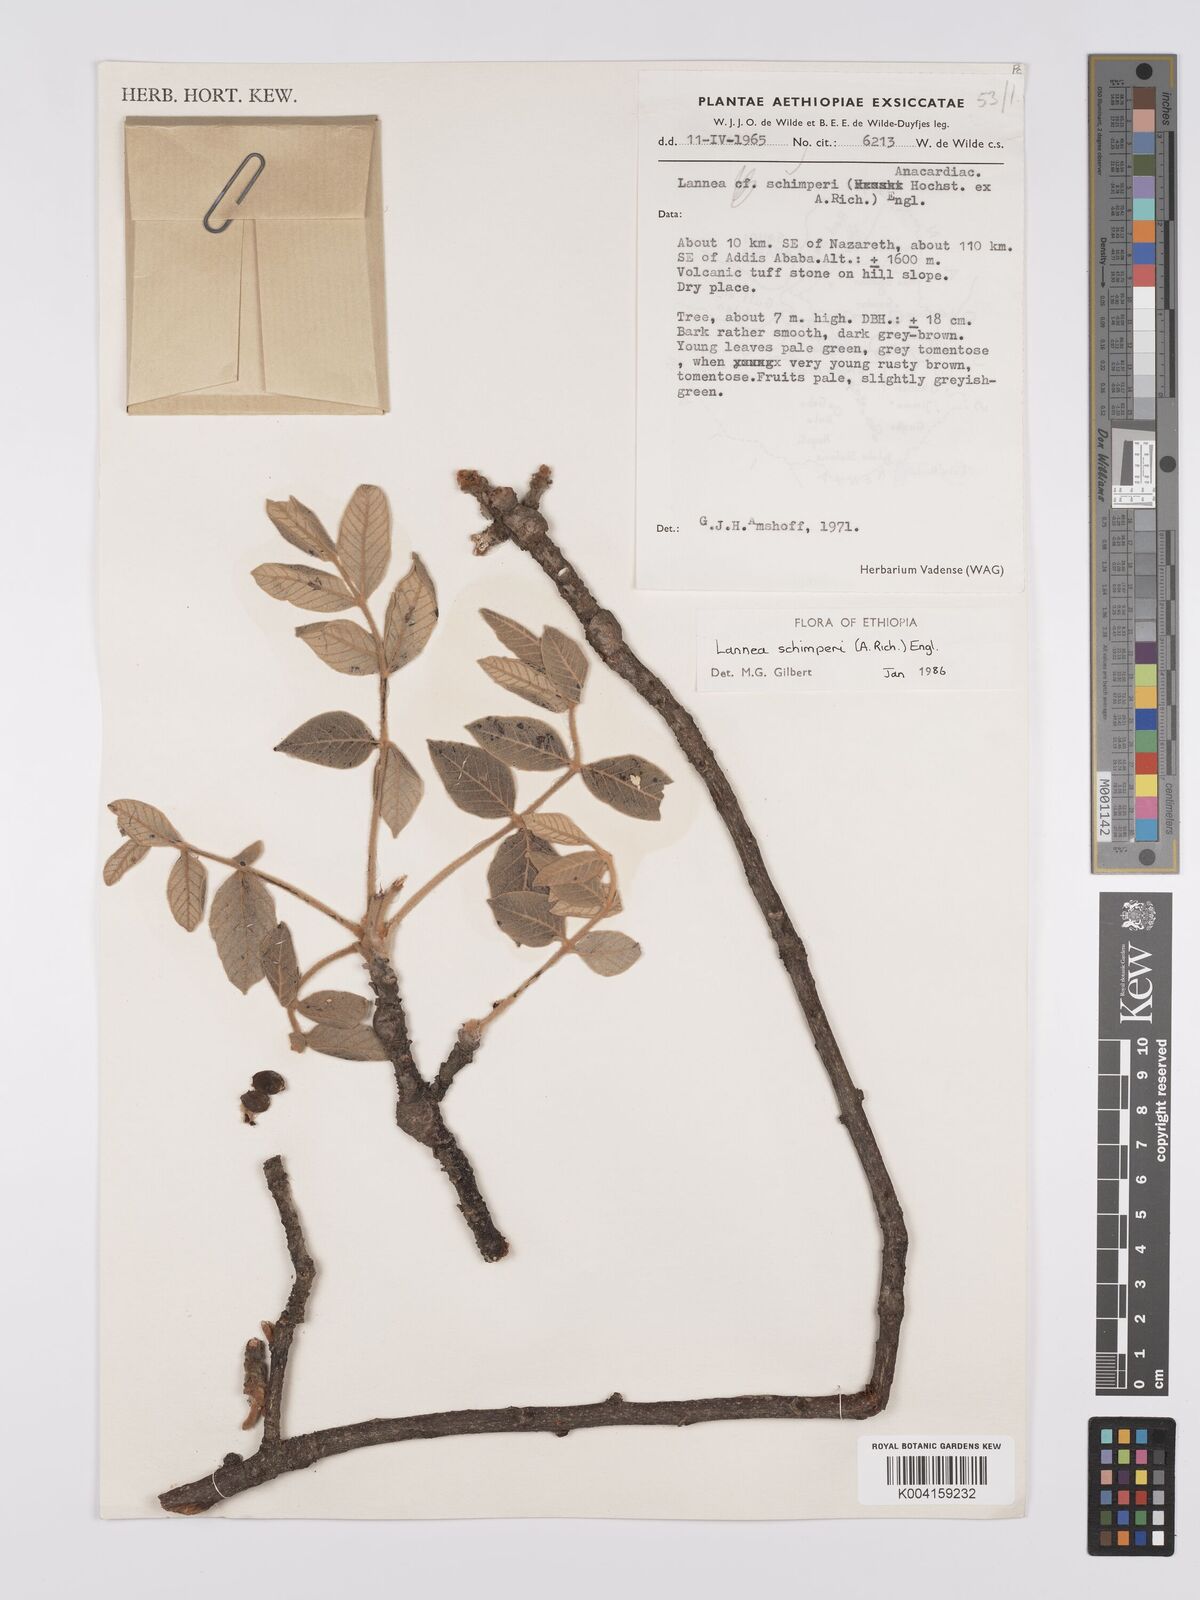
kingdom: Plantae
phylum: Tracheophyta
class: Magnoliopsida
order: Sapindales
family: Anacardiaceae
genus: Lannea
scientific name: Lannea schimperi
